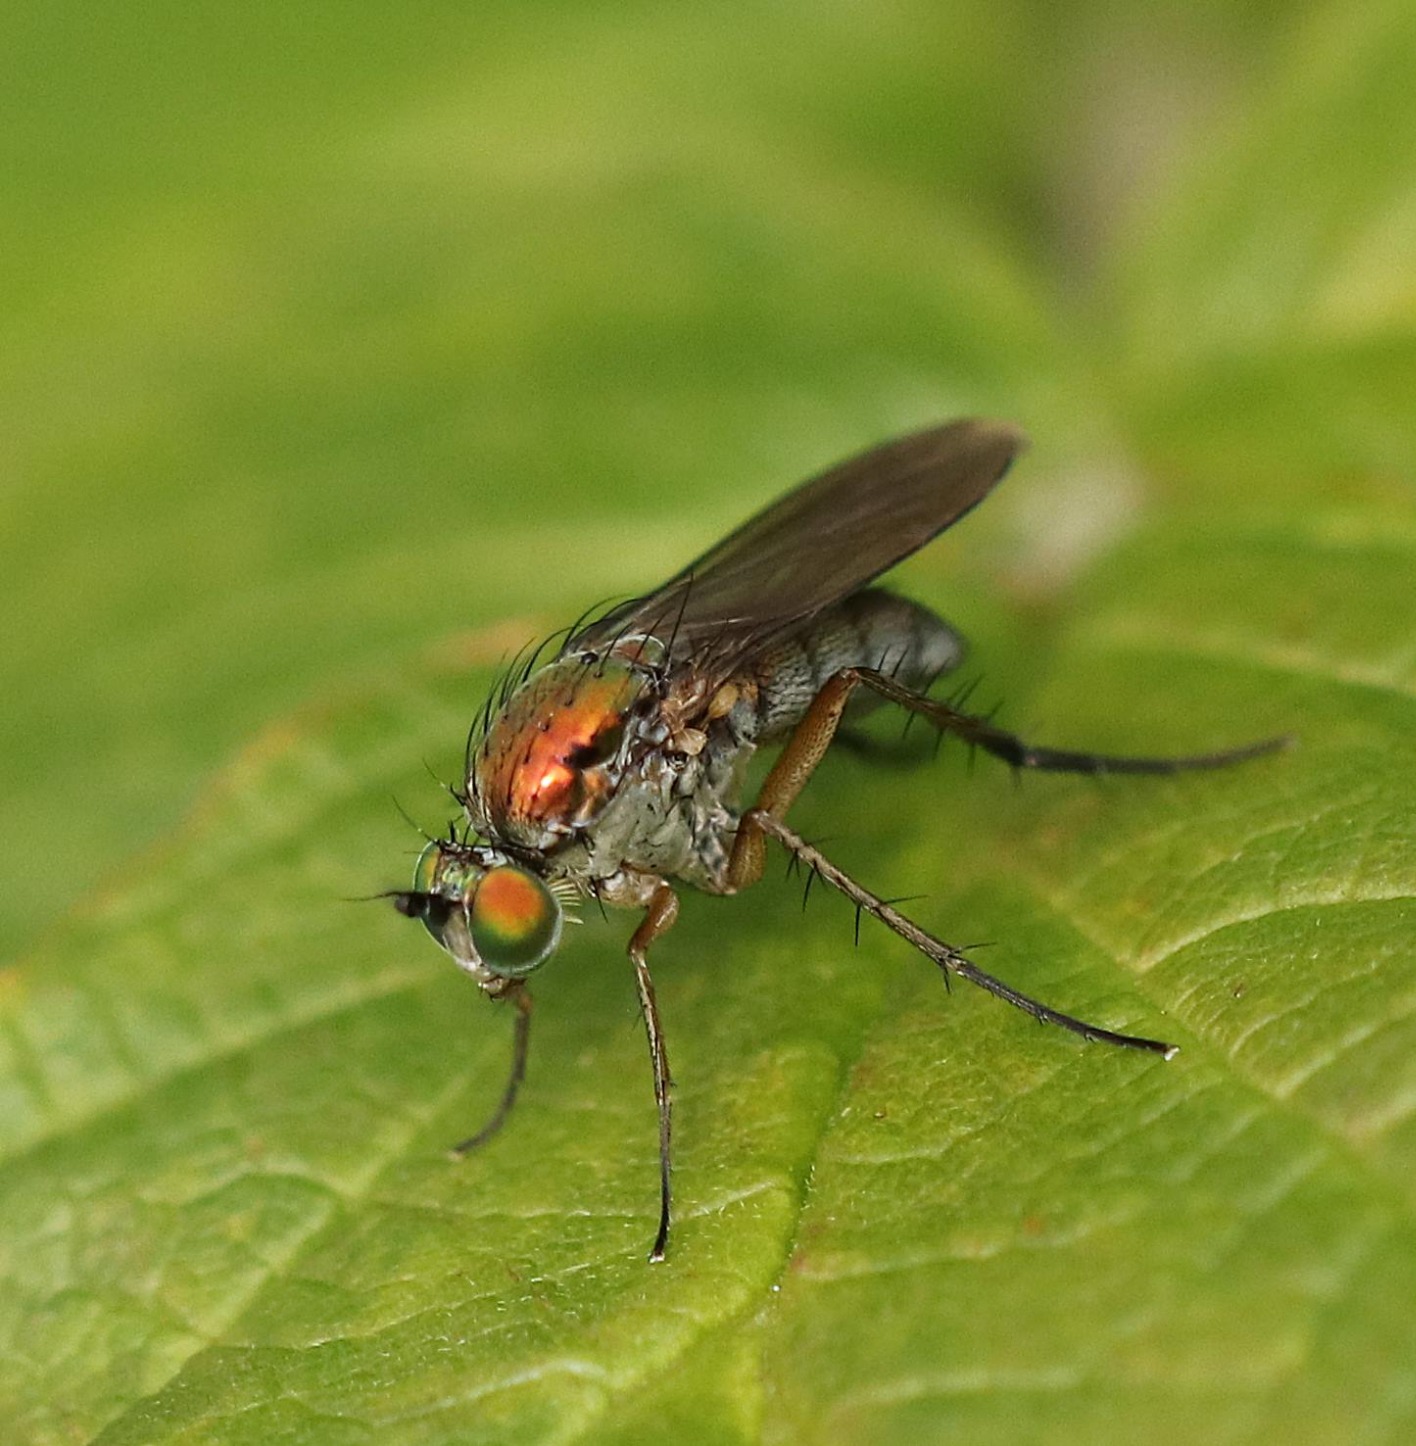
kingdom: Animalia
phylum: Arthropoda
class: Insecta
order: Diptera
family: Dolichopodidae
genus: Dolichopus
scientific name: Dolichopus
